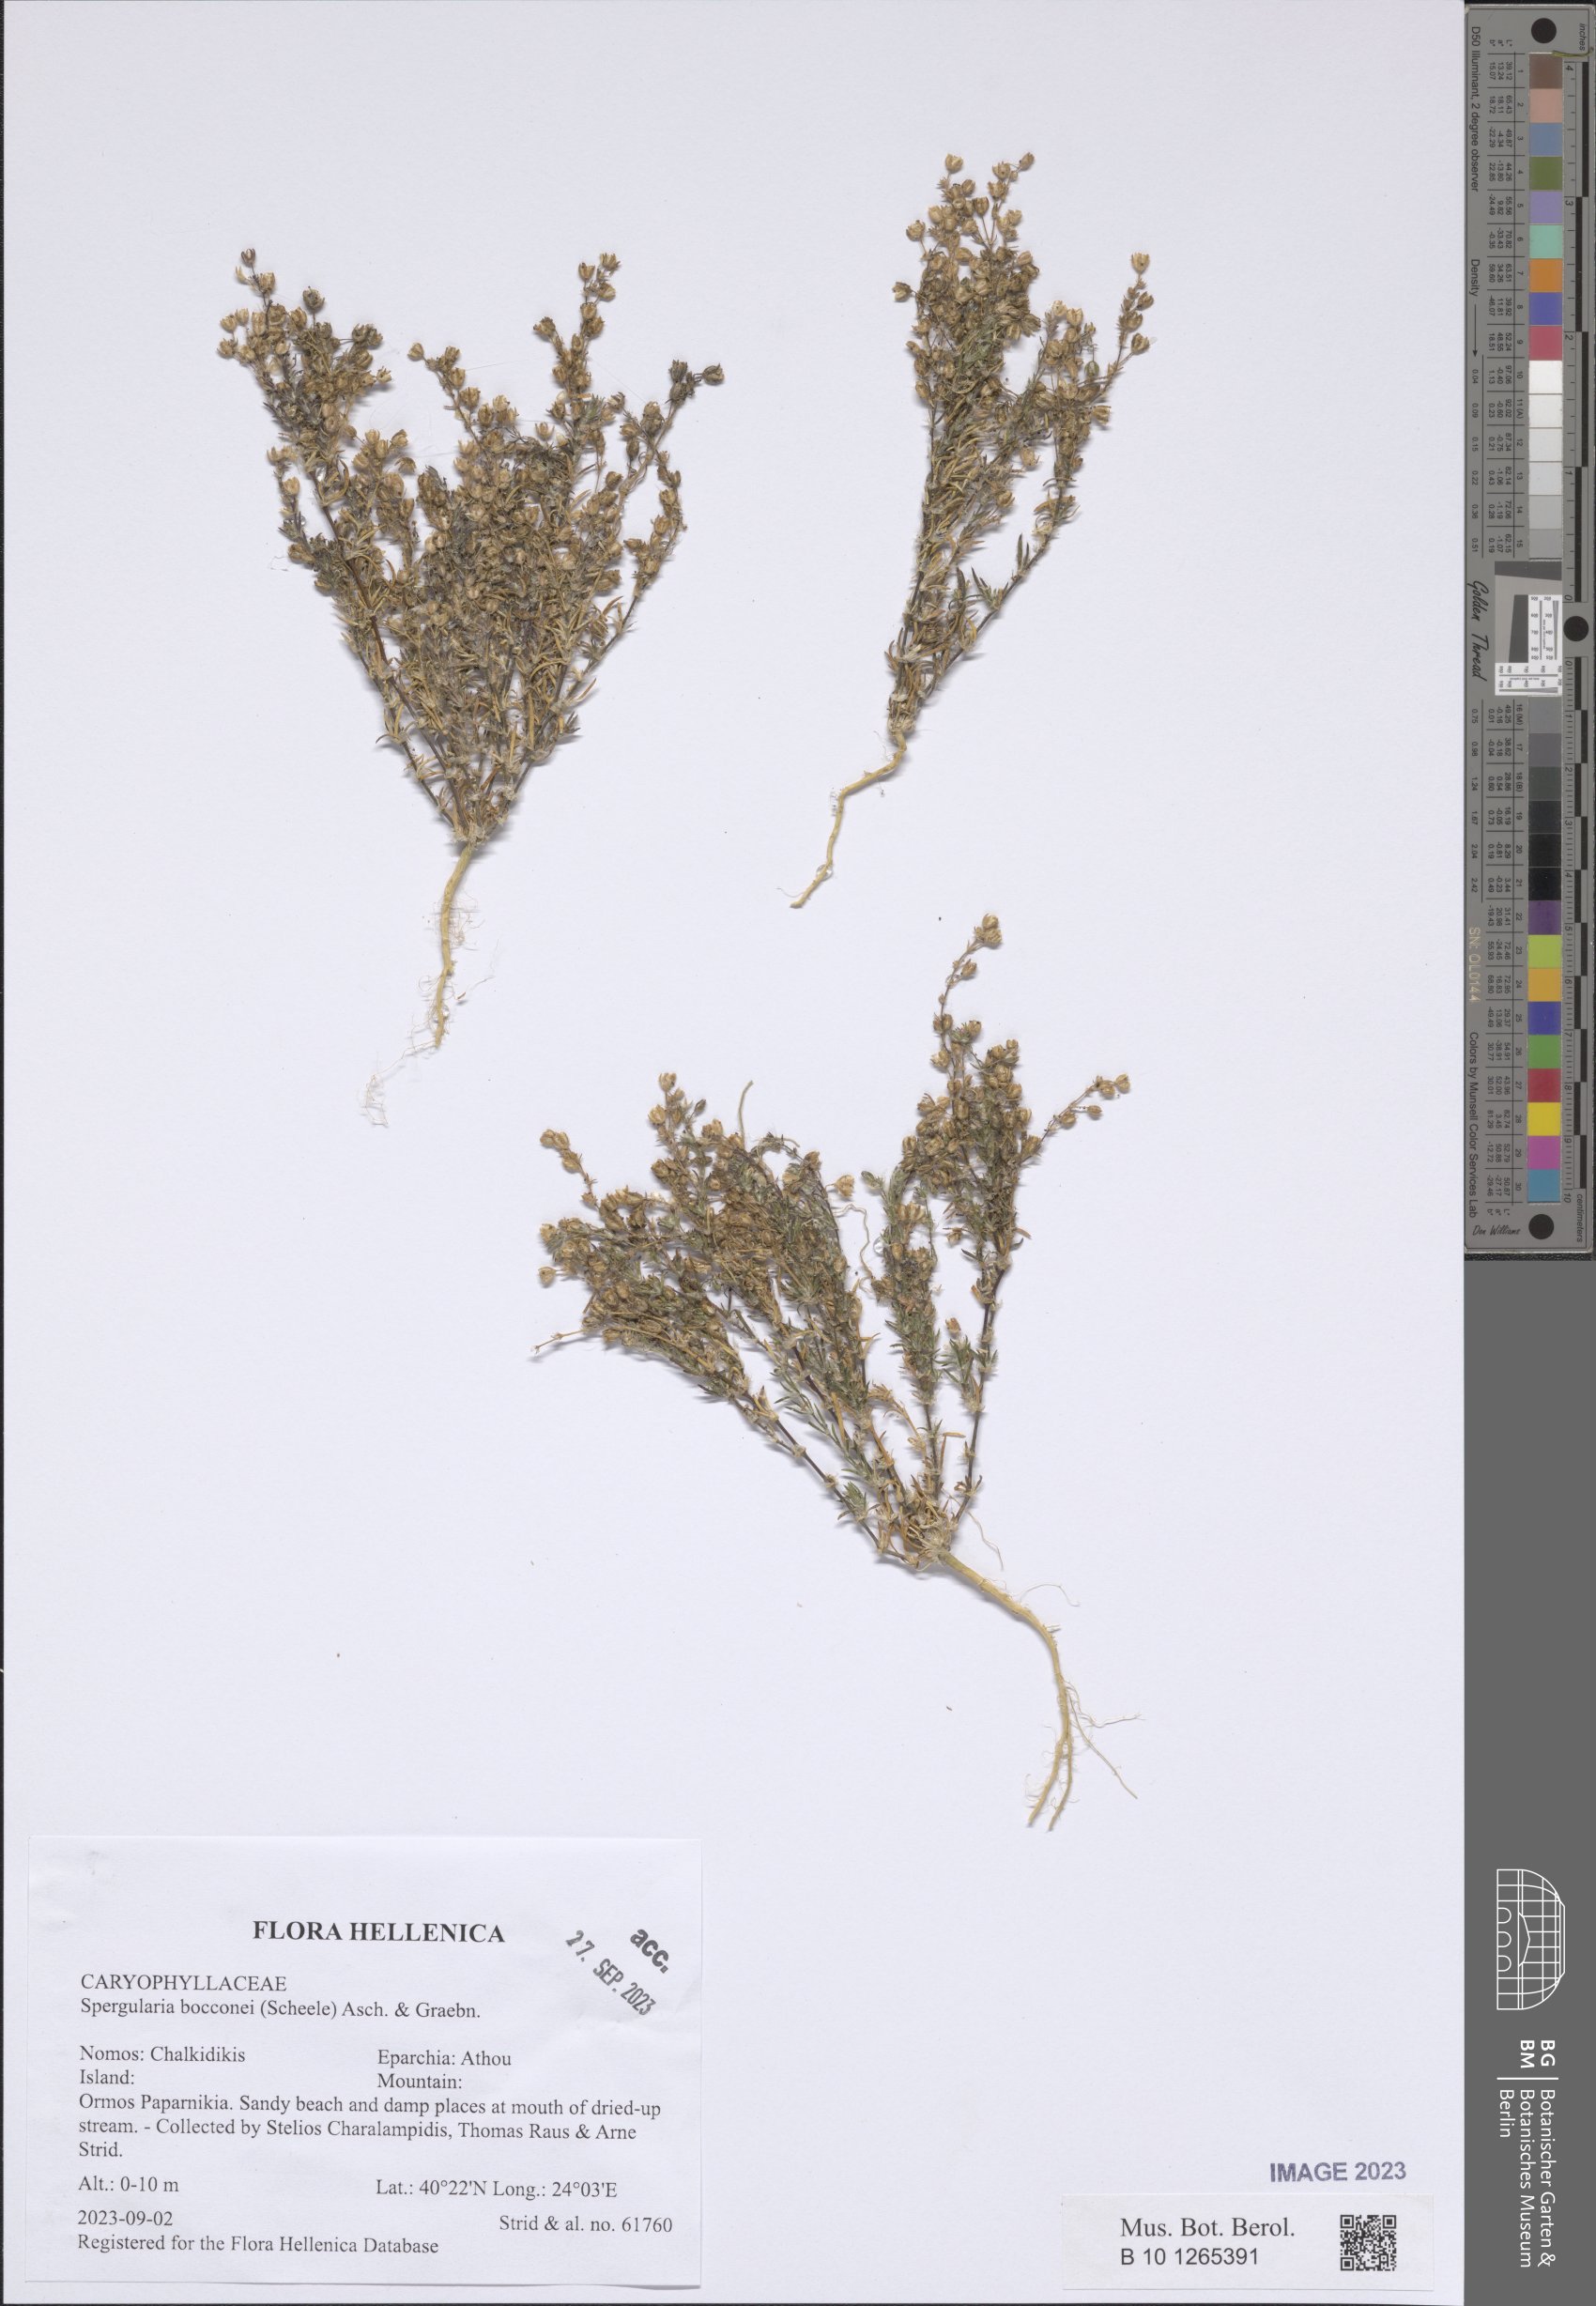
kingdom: Plantae
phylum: Tracheophyta
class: Magnoliopsida
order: Caryophyllales
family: Caryophyllaceae
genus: Spergularia
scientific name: Spergularia bocconei
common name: Greek sea-spurrey
